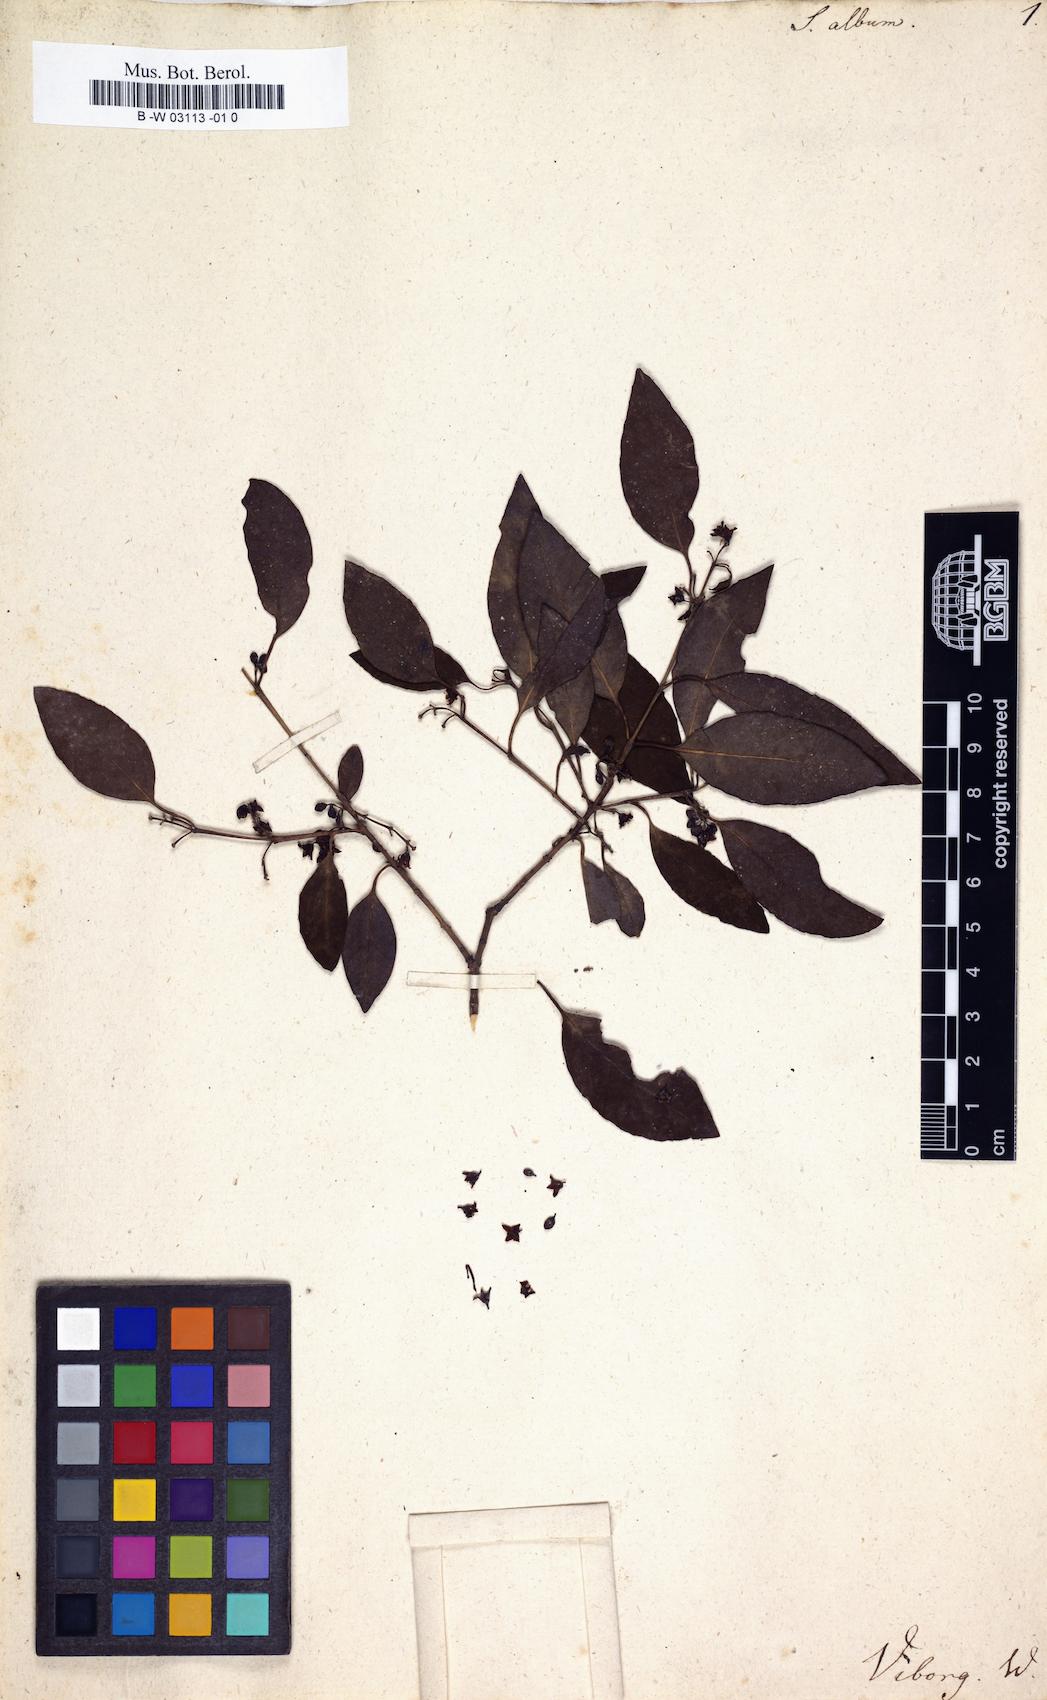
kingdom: Plantae
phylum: Tracheophyta
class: Magnoliopsida
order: Santalales
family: Santalaceae
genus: Santalum
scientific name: Santalum album
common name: Indian sandalwood
